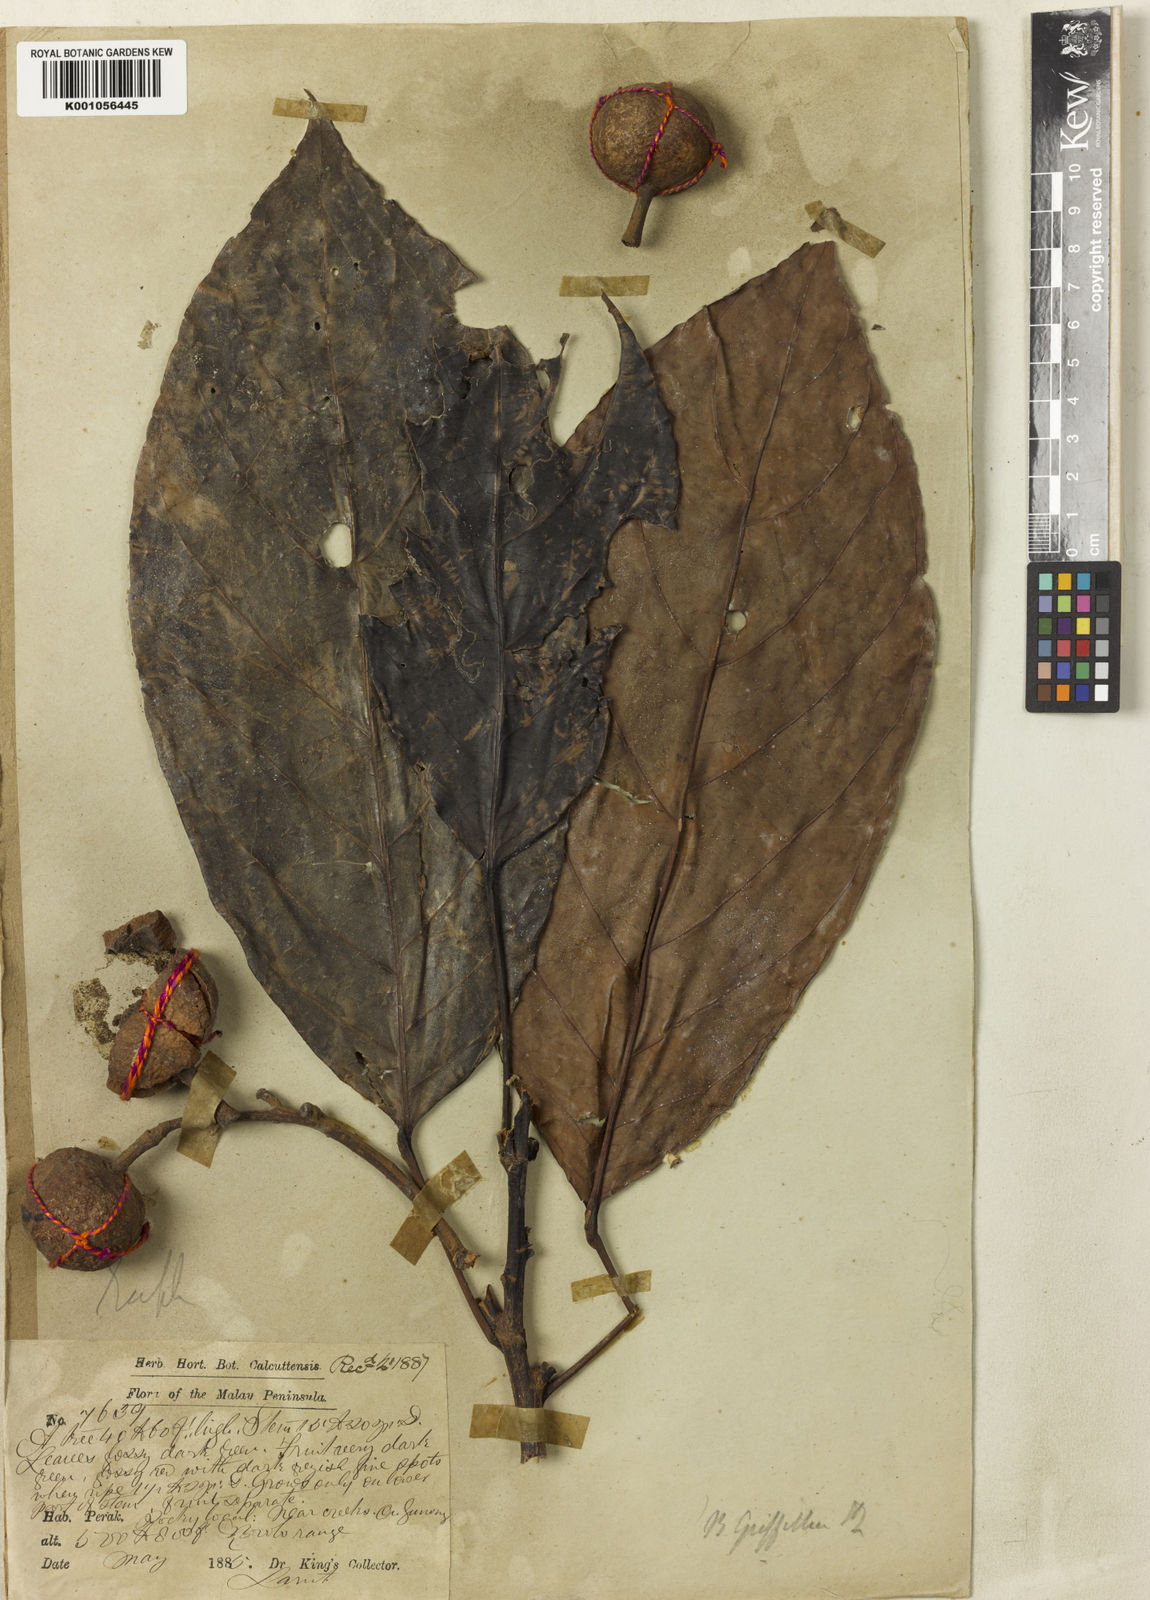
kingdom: Plantae
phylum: Tracheophyta
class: Magnoliopsida
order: Malpighiales
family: Phyllanthaceae
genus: Baccaurea
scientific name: Baccaurea
